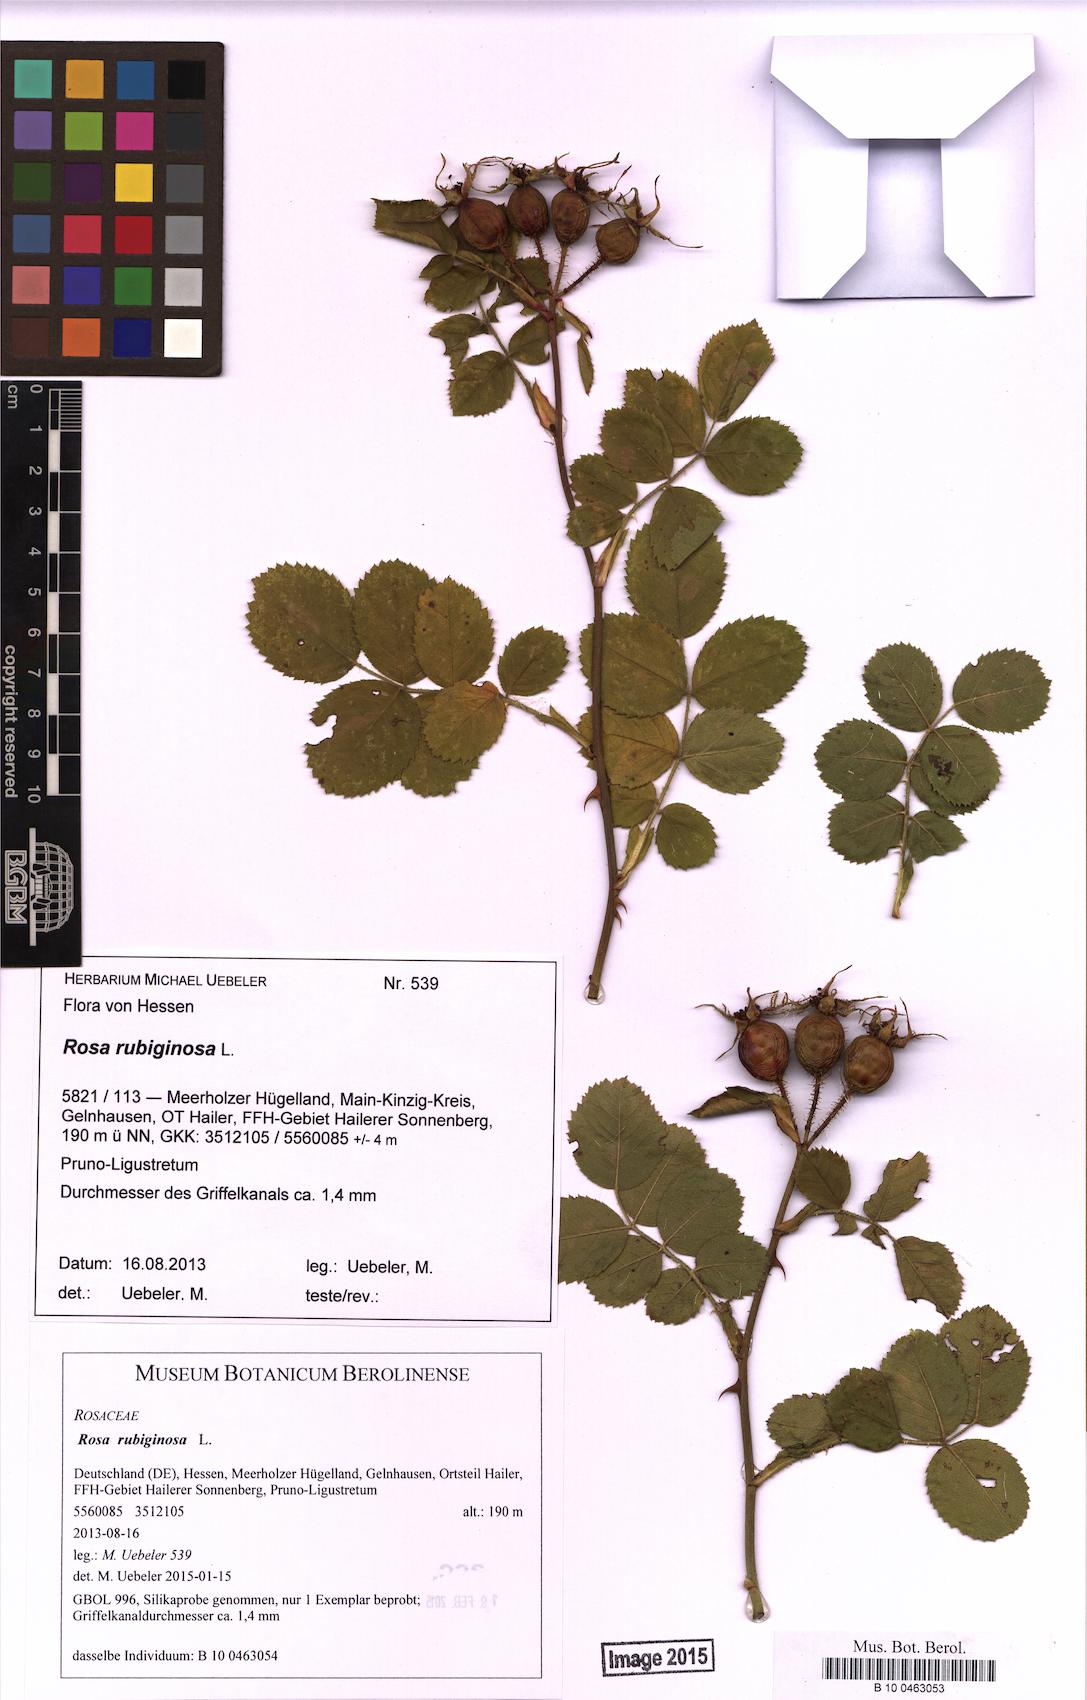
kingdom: Plantae
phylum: Tracheophyta
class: Magnoliopsida
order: Rosales
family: Rosaceae
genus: Rosa
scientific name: Rosa rubiginosa
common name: Sweet-briar
